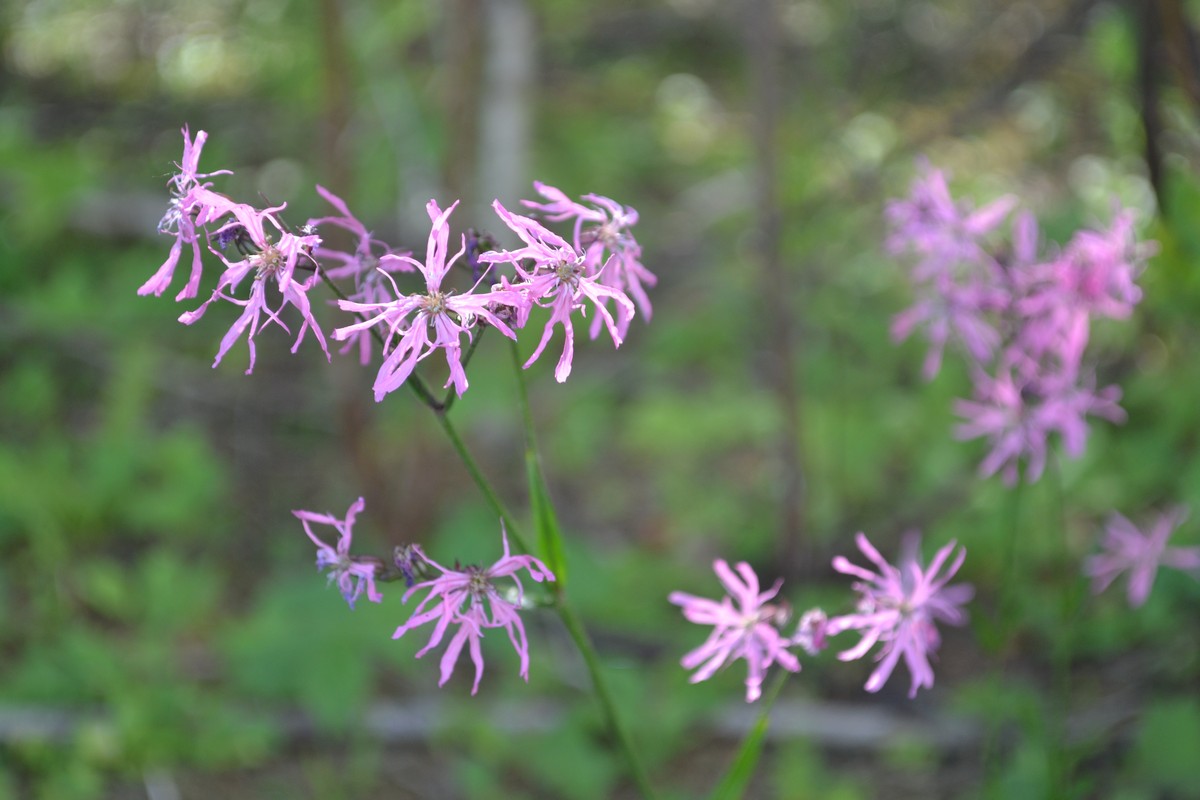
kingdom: Plantae
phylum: Tracheophyta
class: Magnoliopsida
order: Caryophyllales
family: Caryophyllaceae
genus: Silene
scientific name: Silene flos-cuculi
